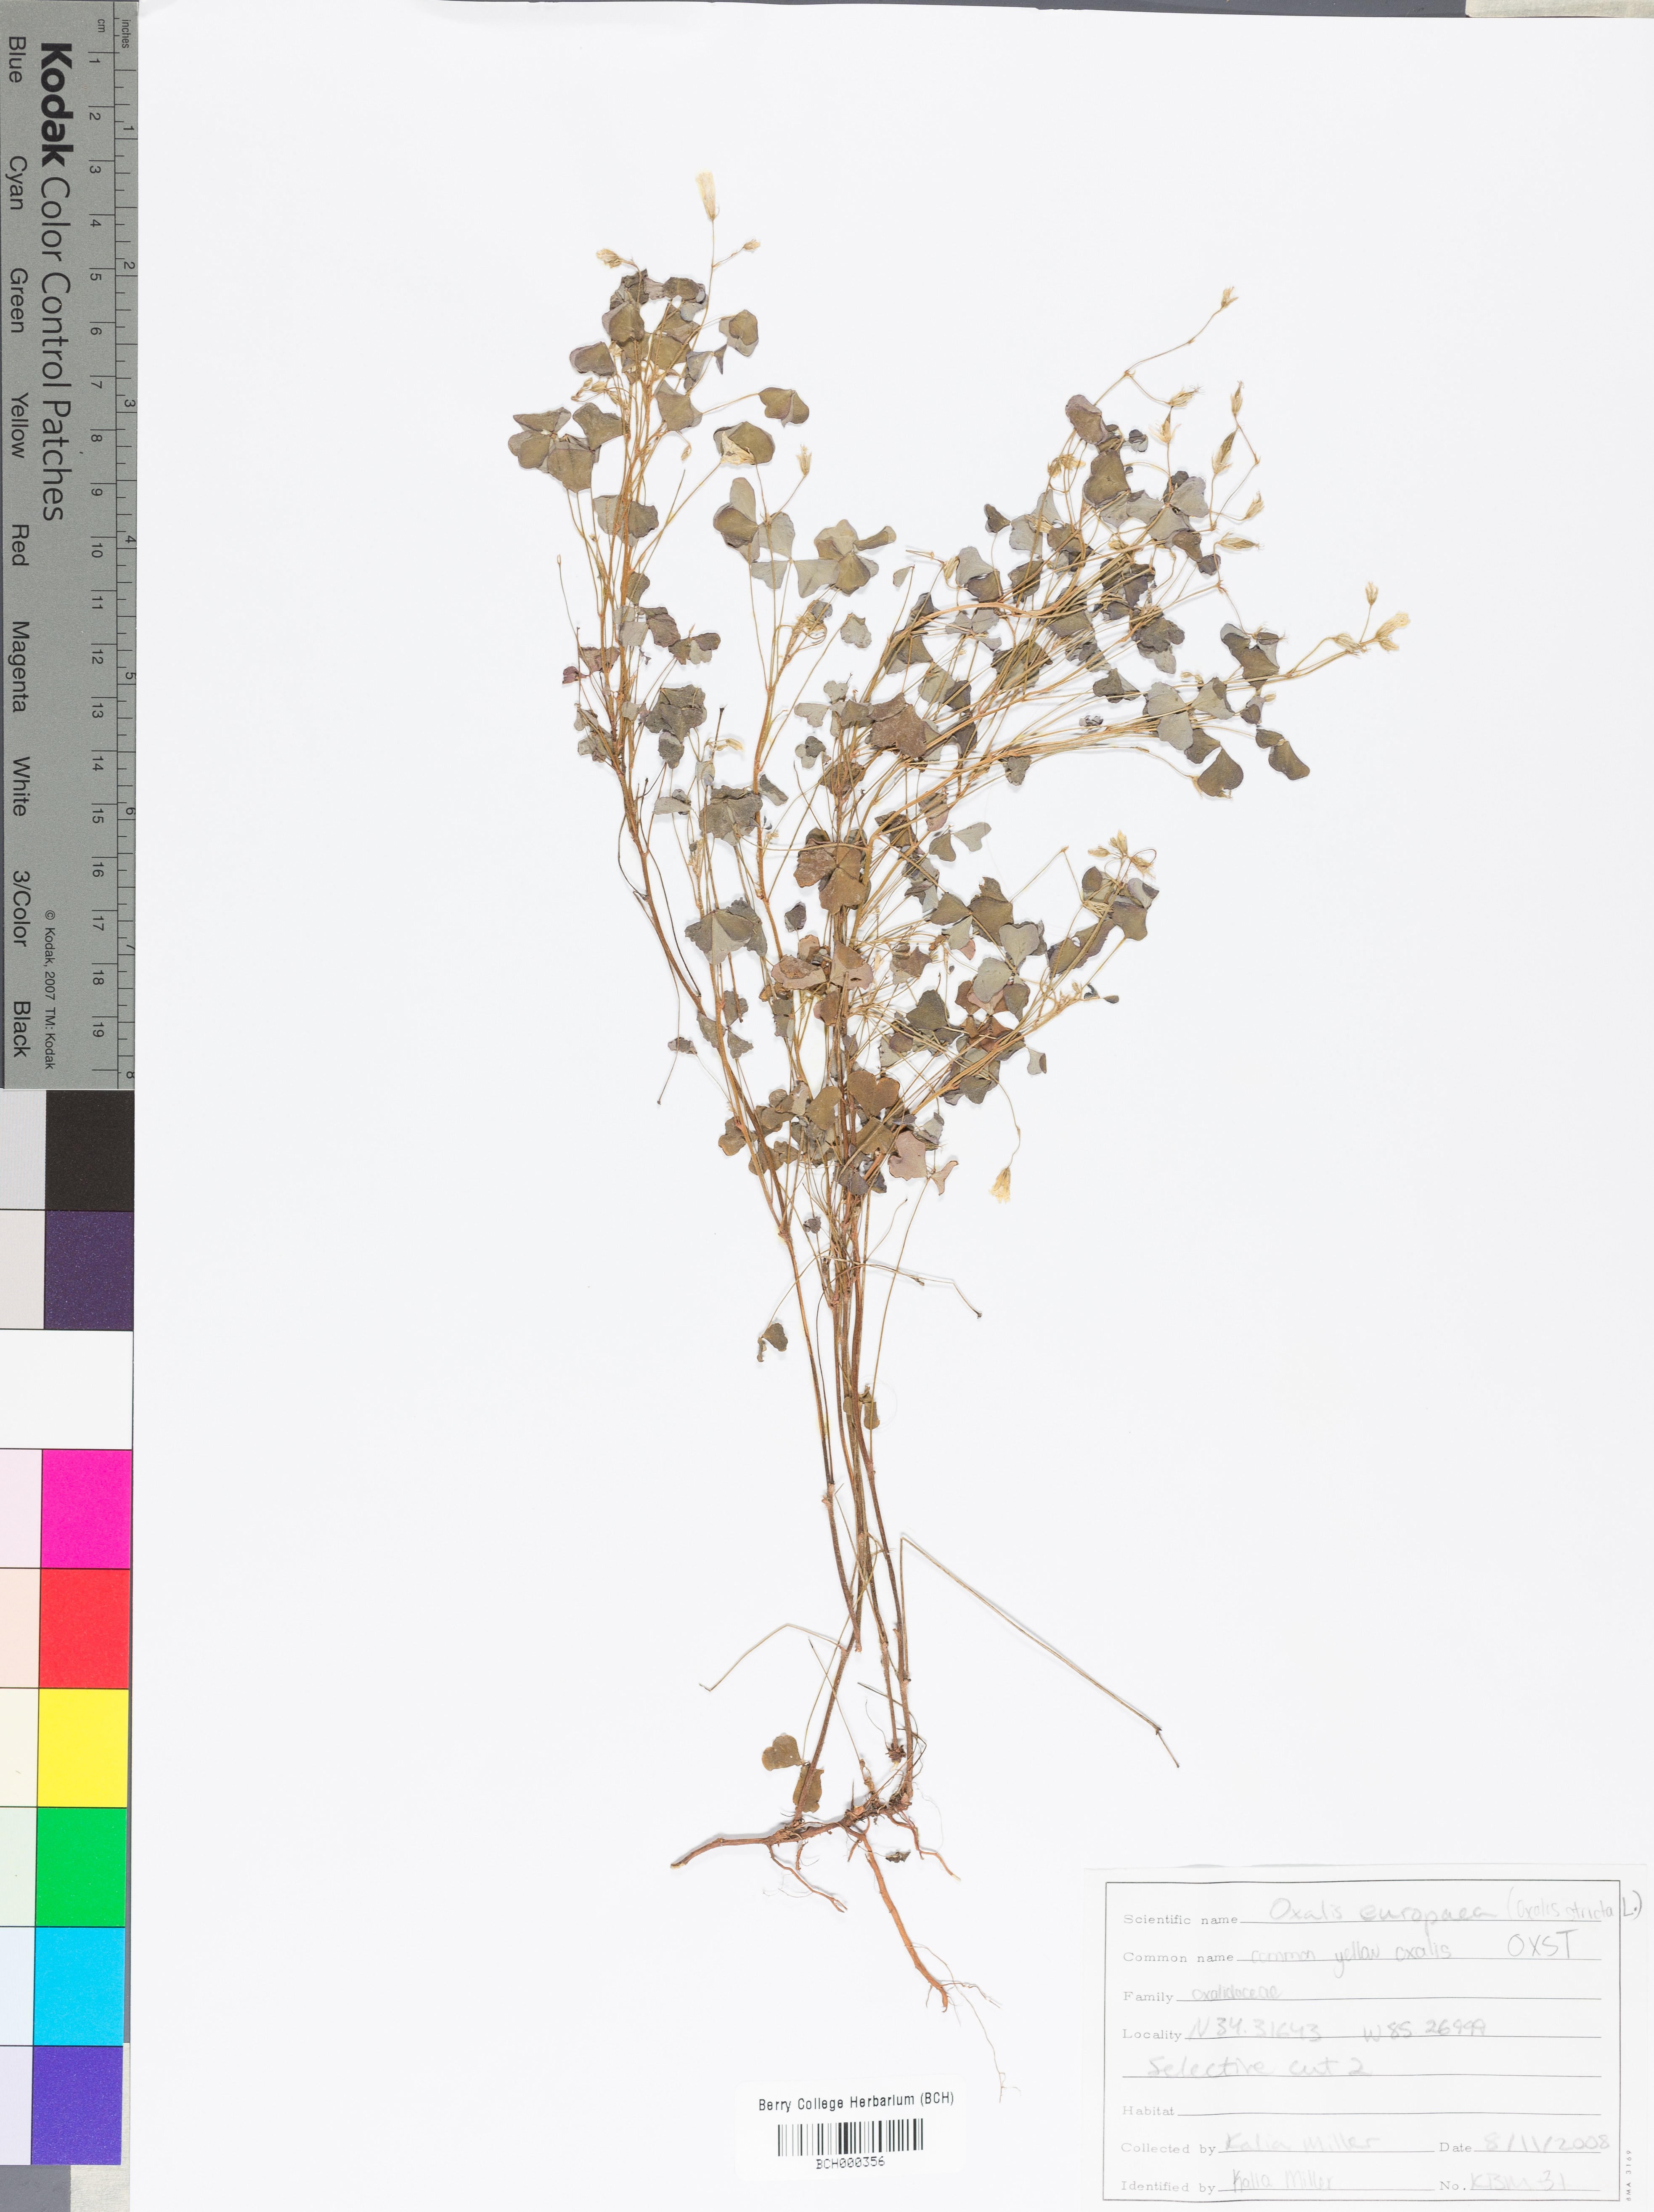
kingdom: Plantae
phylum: Tracheophyta
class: Magnoliopsida
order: Oxalidales
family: Oxalidaceae
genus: Oxalis
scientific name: Oxalis stricta
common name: Upright yellow-sorrel
